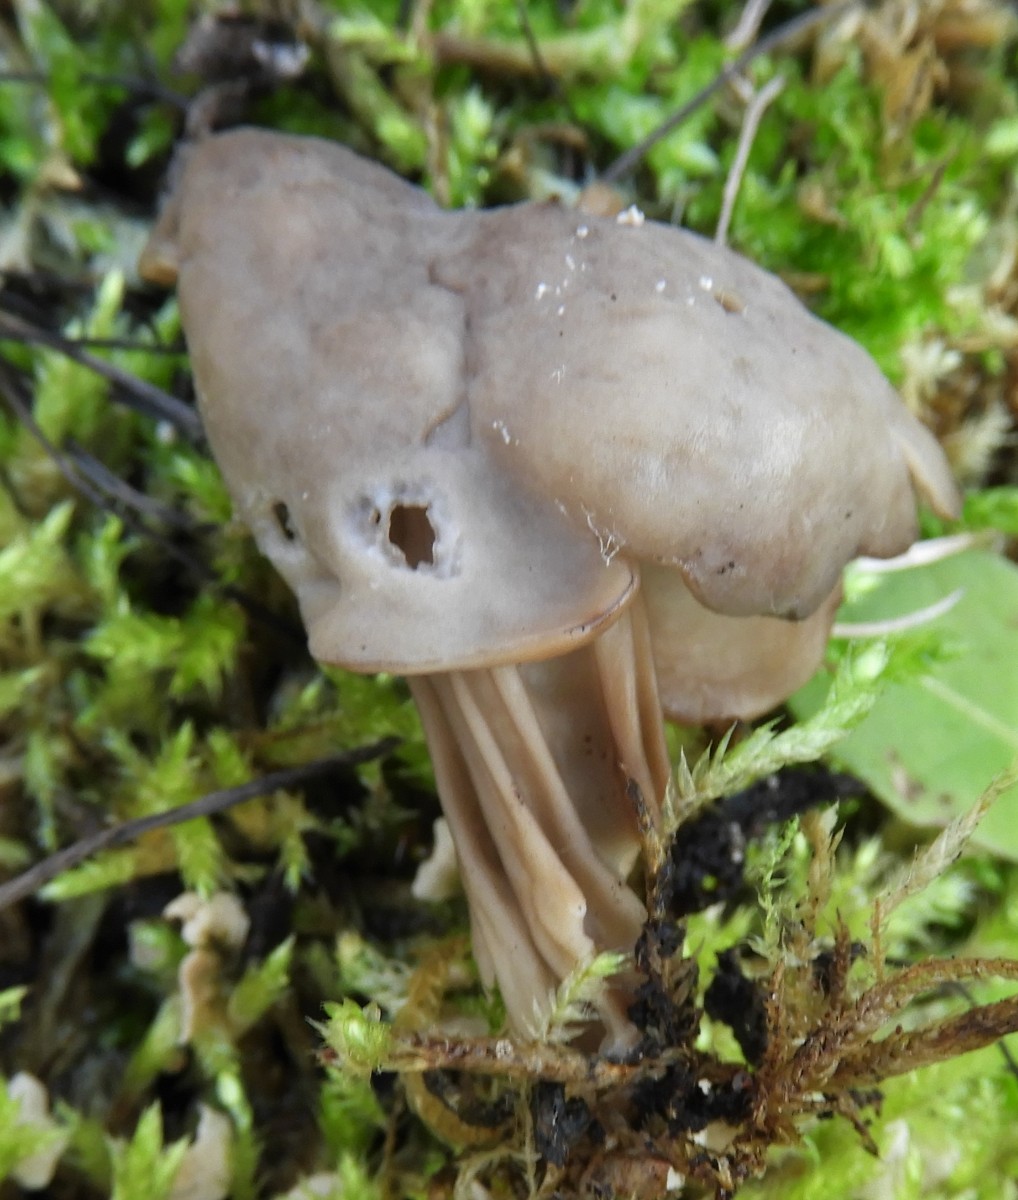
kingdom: Fungi
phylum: Ascomycota
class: Pezizomycetes
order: Pezizales
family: Helvellaceae
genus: Helvella
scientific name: Helvella lacunosa
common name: grubet foldhat
